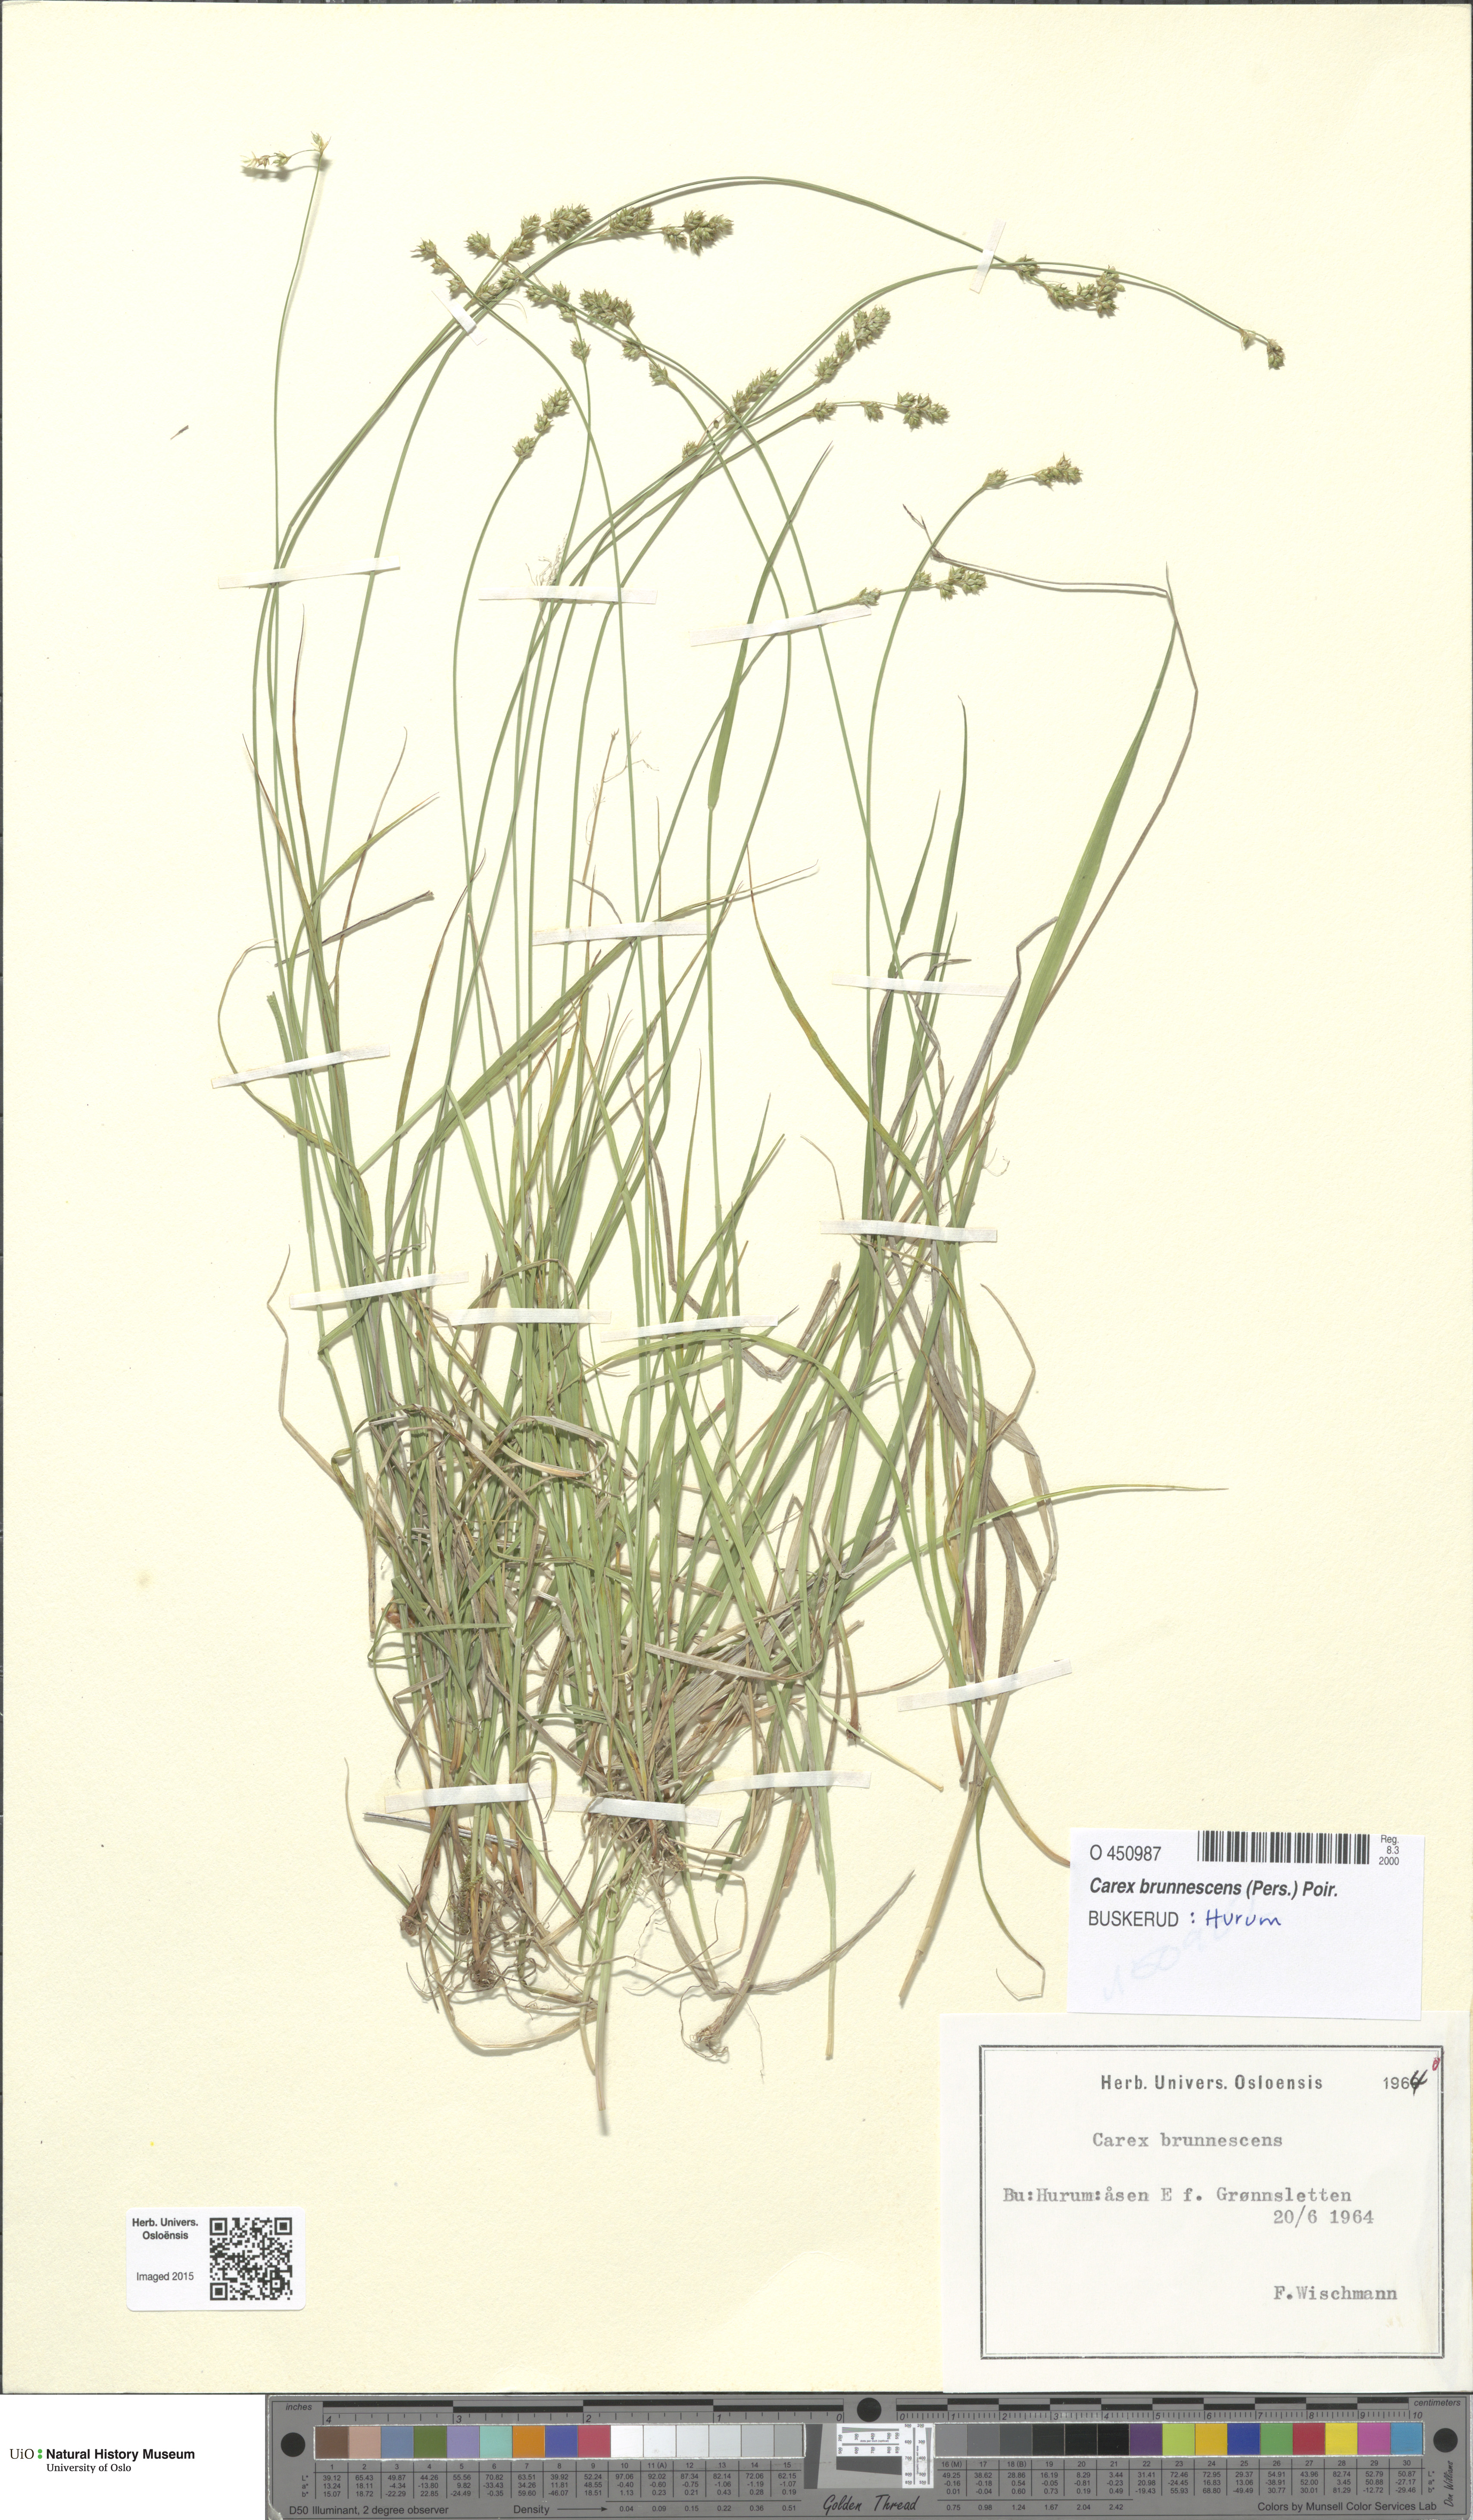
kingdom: Plantae
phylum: Tracheophyta
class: Liliopsida
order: Poales
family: Cyperaceae
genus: Carex
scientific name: Carex brunnescens
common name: Brown sedge
